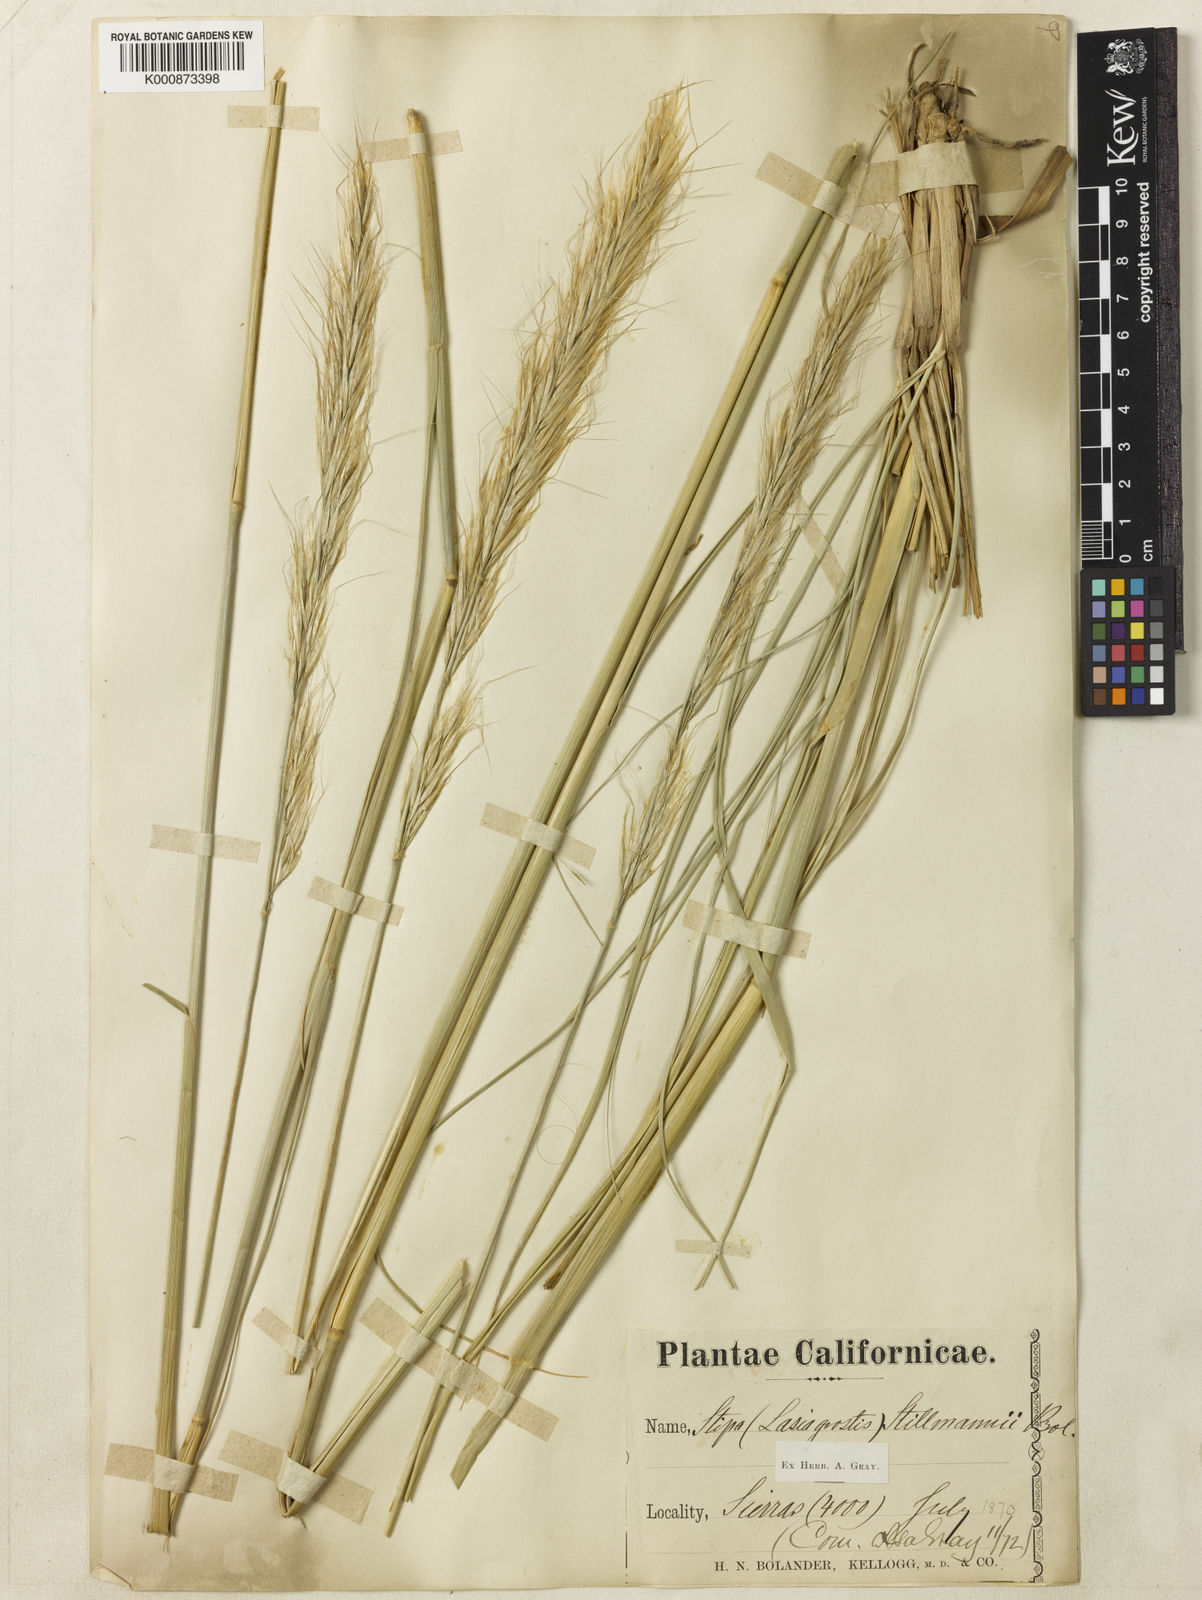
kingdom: Plantae
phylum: Tracheophyta
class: Liliopsida
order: Poales
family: Poaceae
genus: Barkworthia
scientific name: Barkworthia stillmanii
